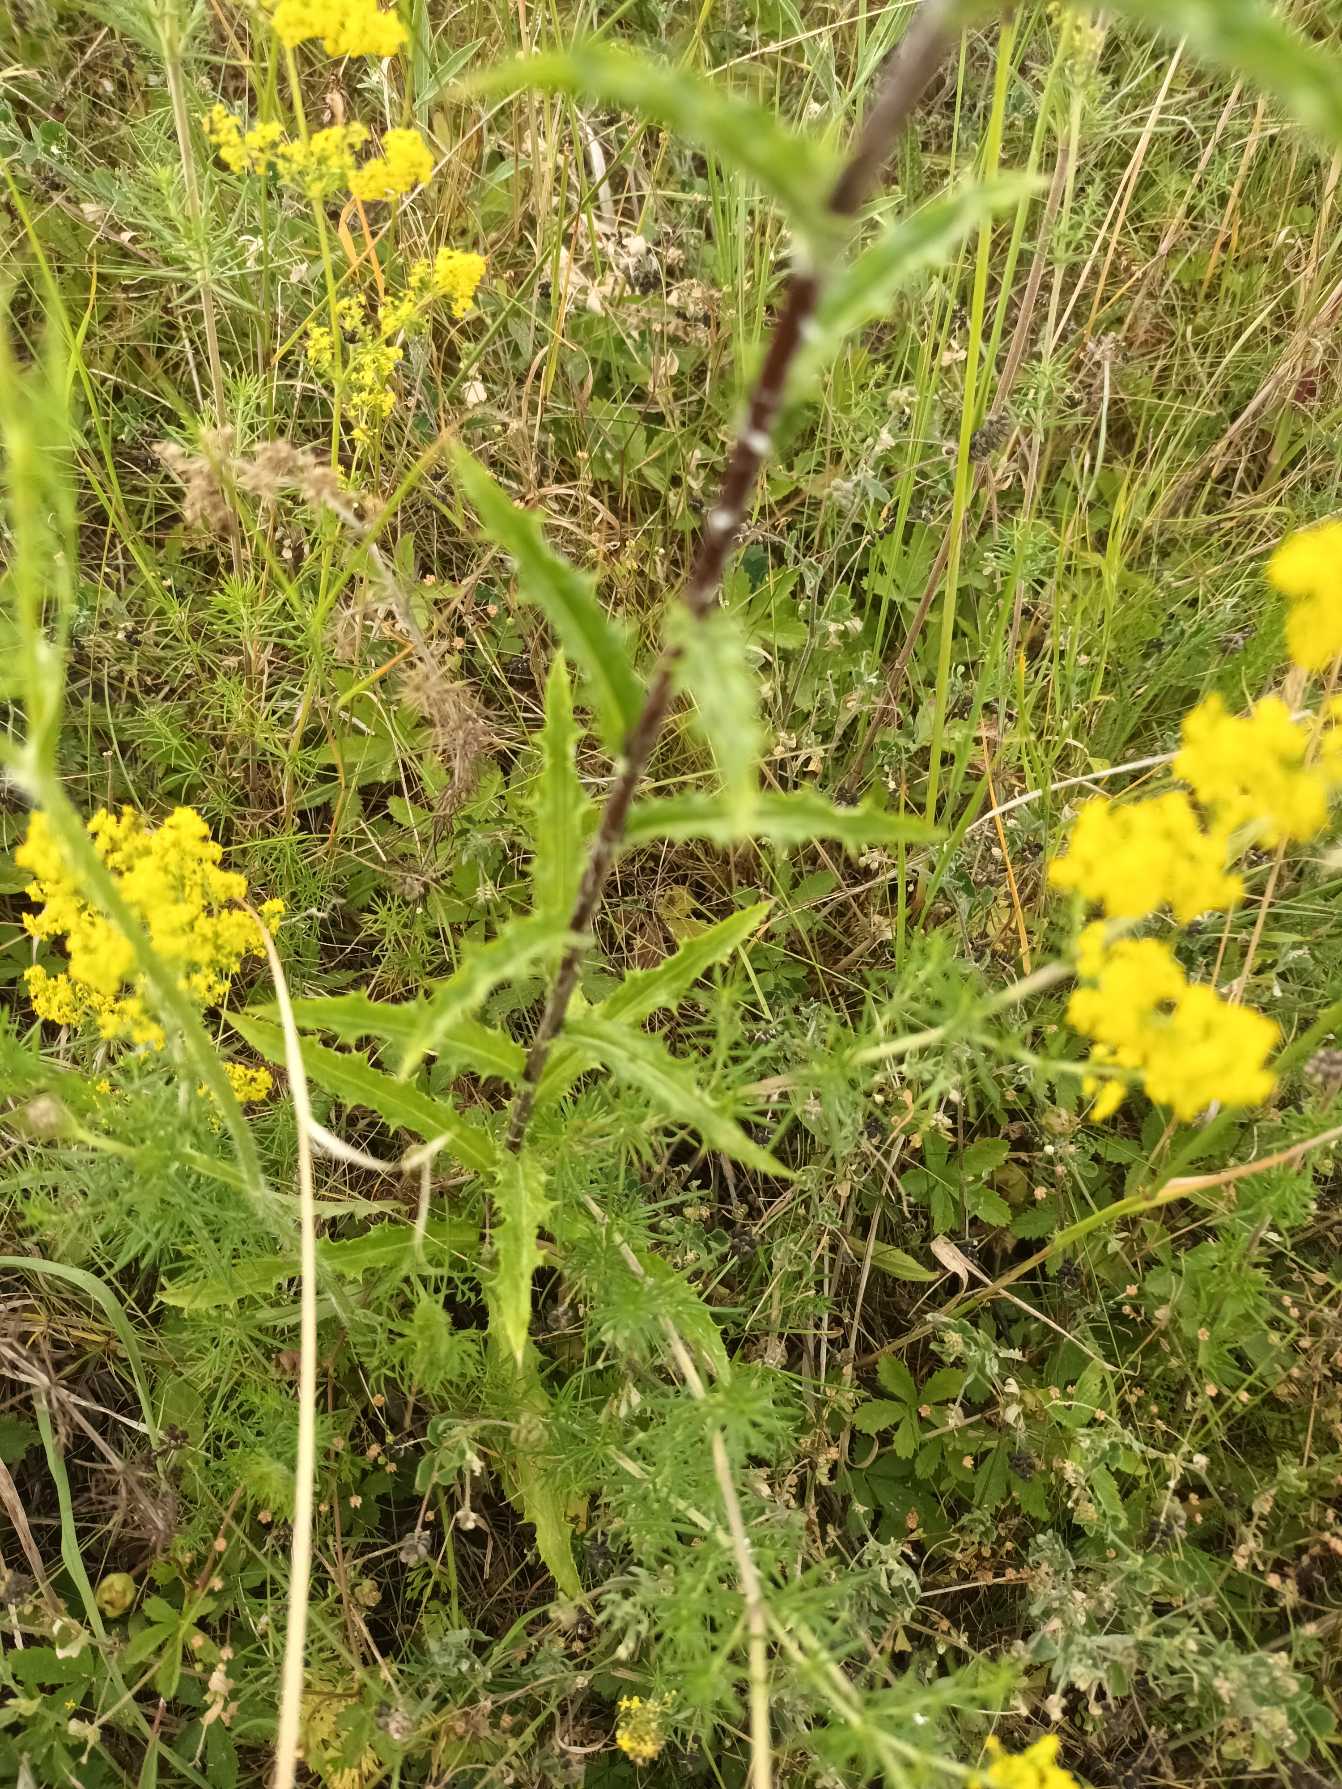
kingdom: Plantae
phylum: Tracheophyta
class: Magnoliopsida
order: Asterales
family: Asteraceae
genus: Carlina
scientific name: Carlina biebersteinii
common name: Langbladet bakketidsel
